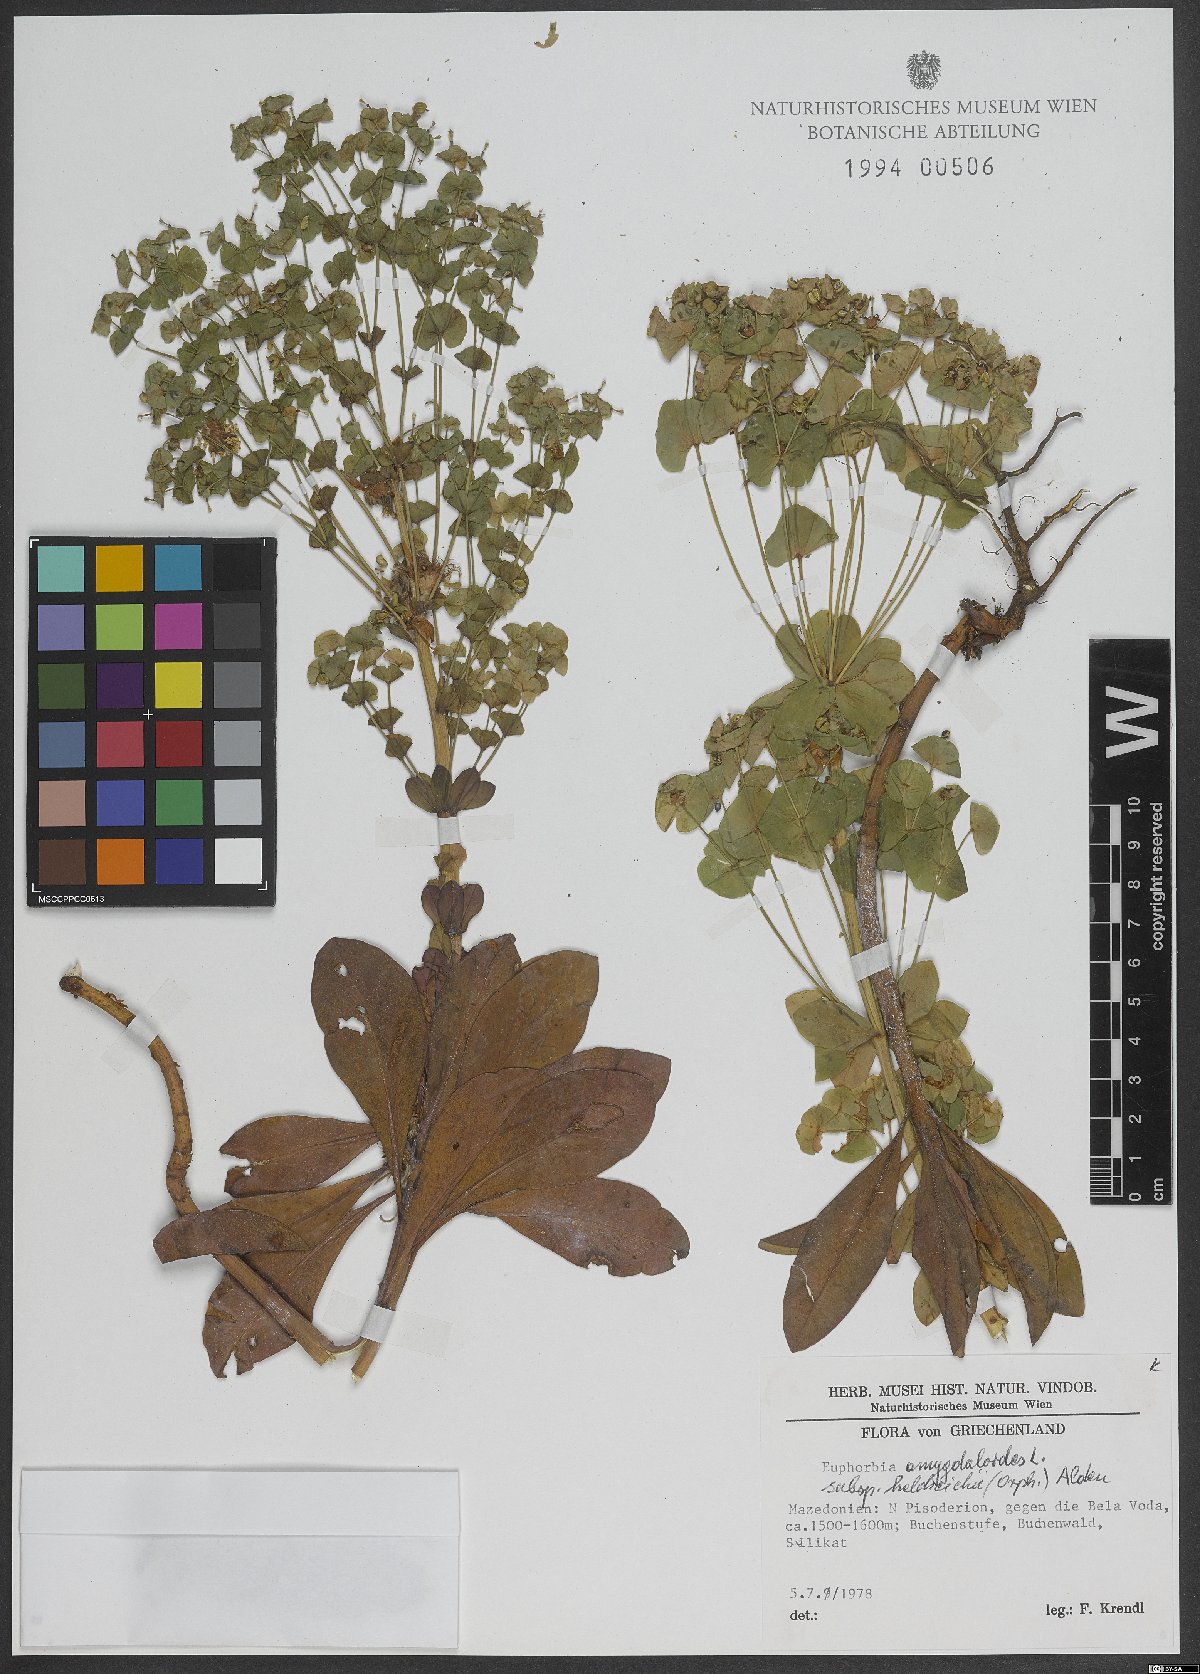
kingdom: Plantae
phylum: Tracheophyta
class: Magnoliopsida
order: Malpighiales
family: Euphorbiaceae
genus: Euphorbia
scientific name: Euphorbia heldreichii
